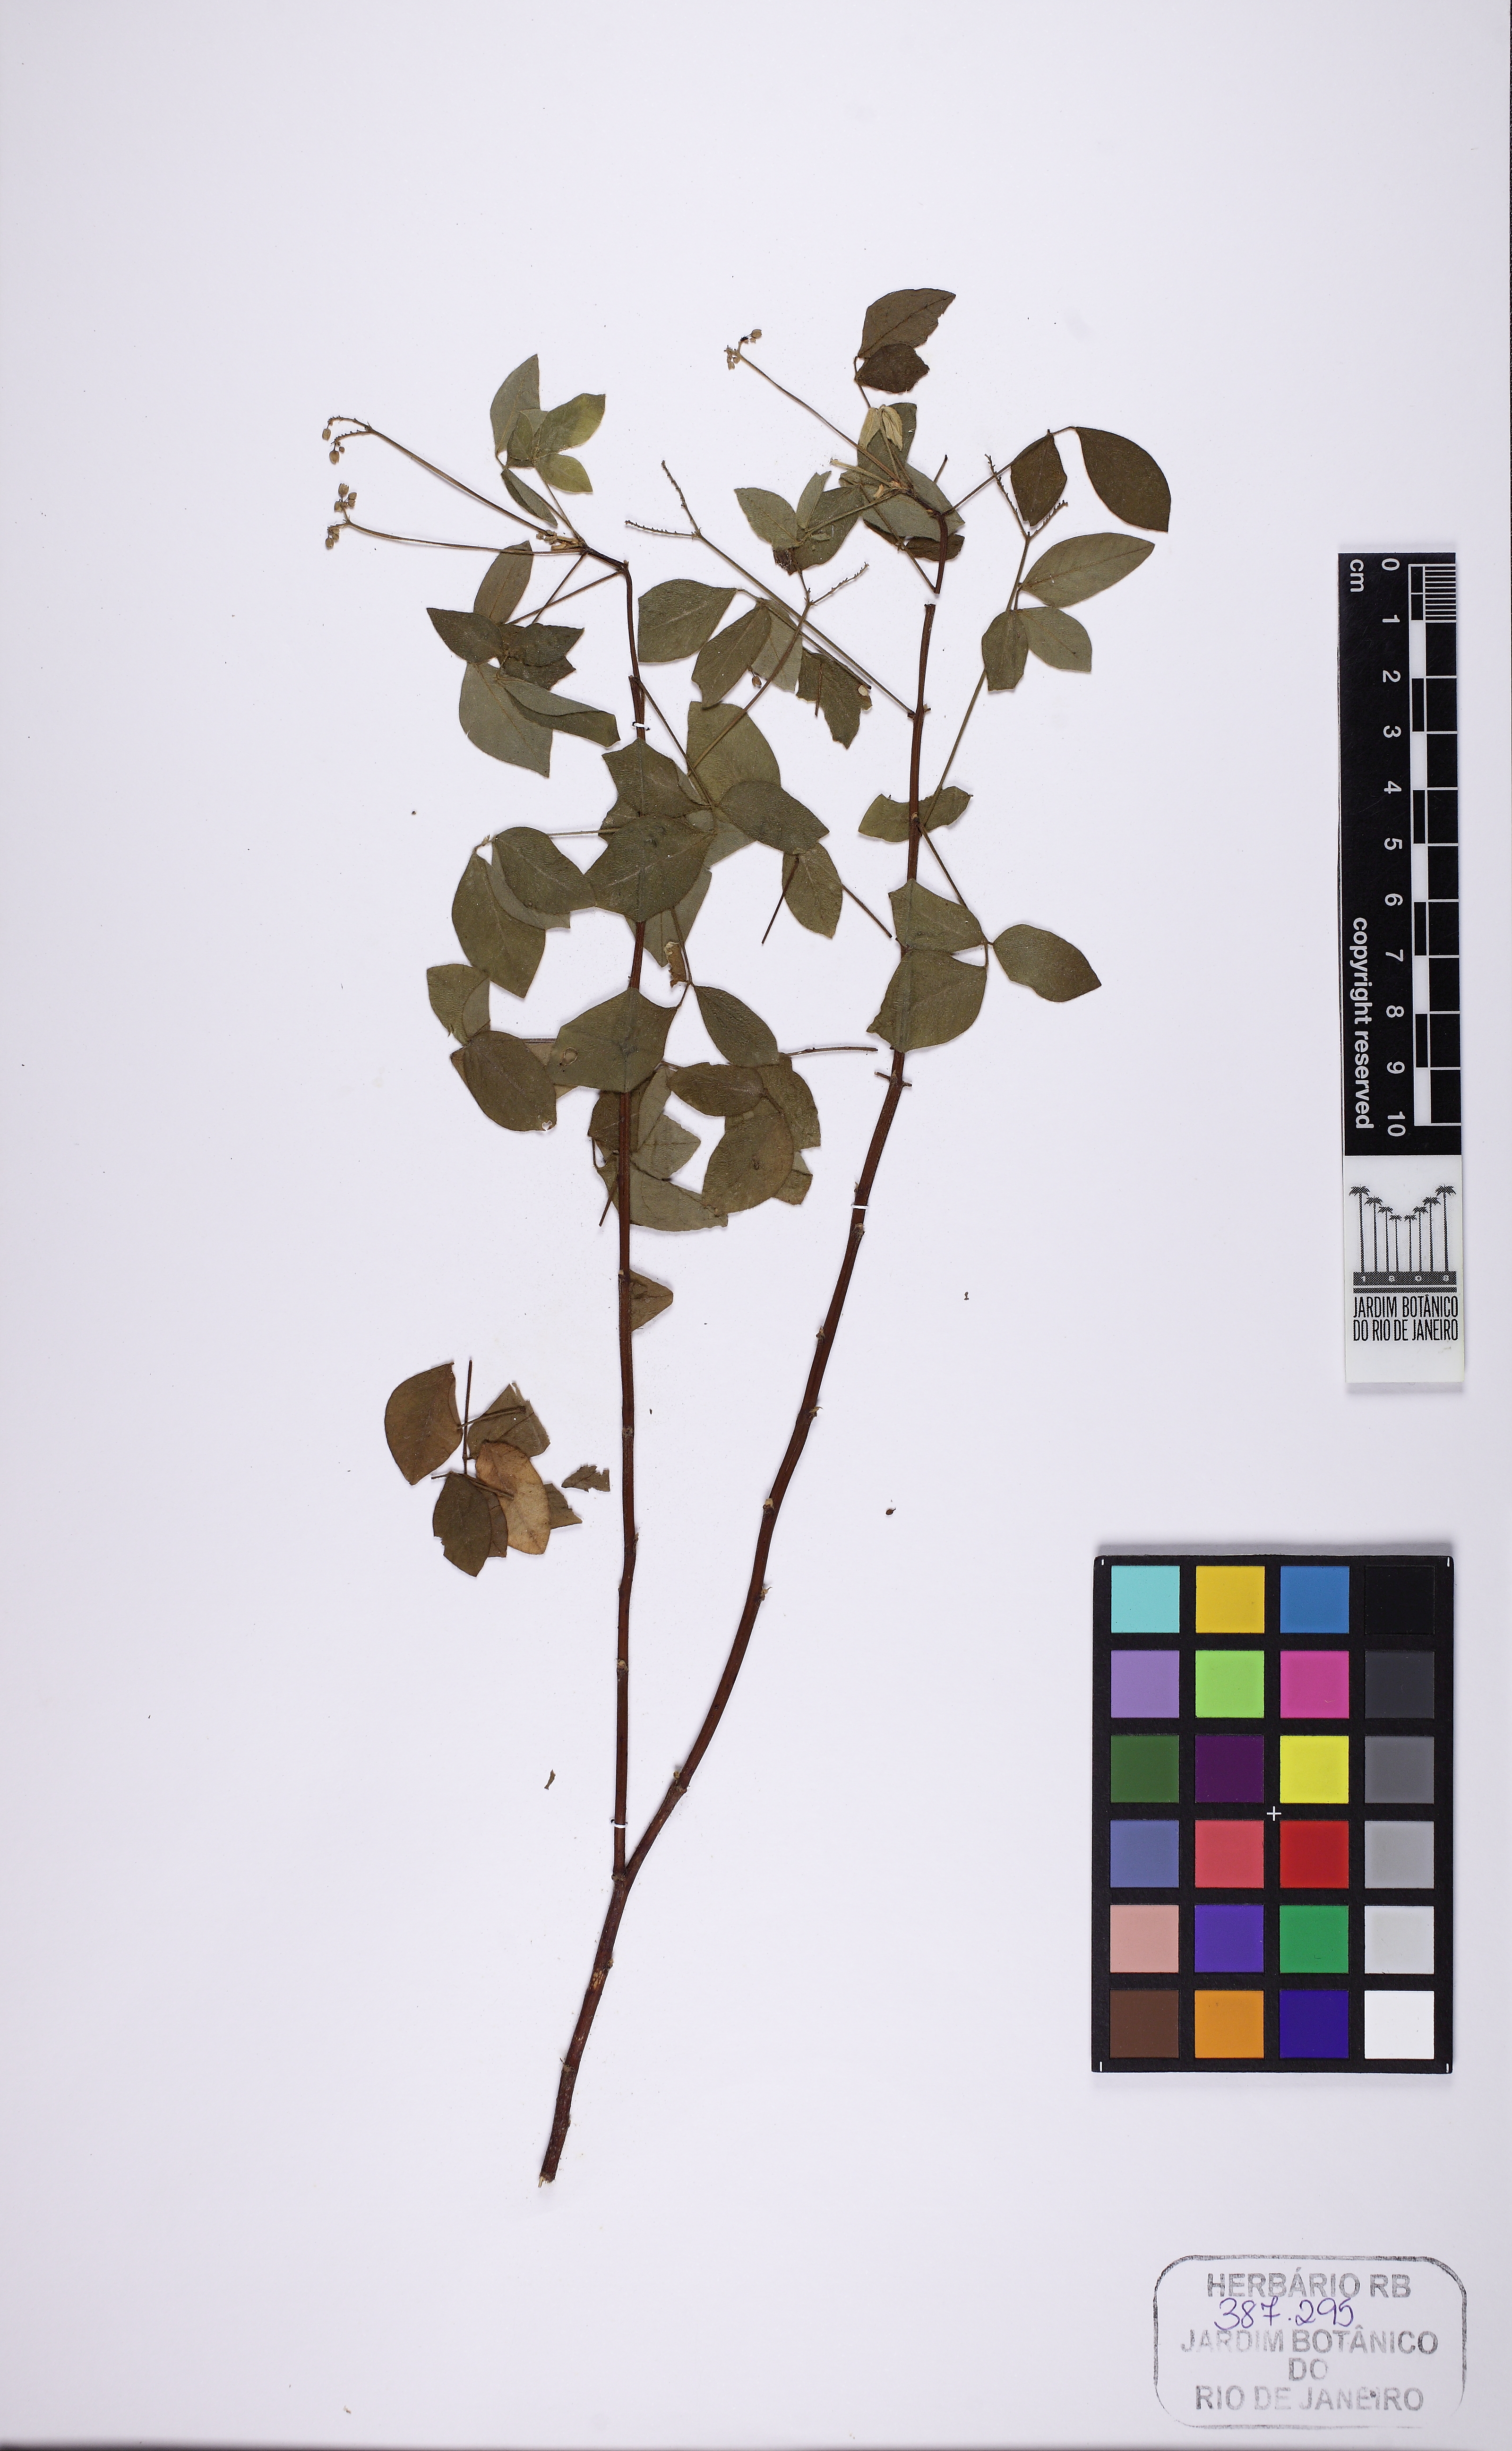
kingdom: Plantae
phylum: Tracheophyta
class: Magnoliopsida
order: Oxalidales
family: Oxalidaceae
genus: Oxalis
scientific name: Oxalis barrelieri
